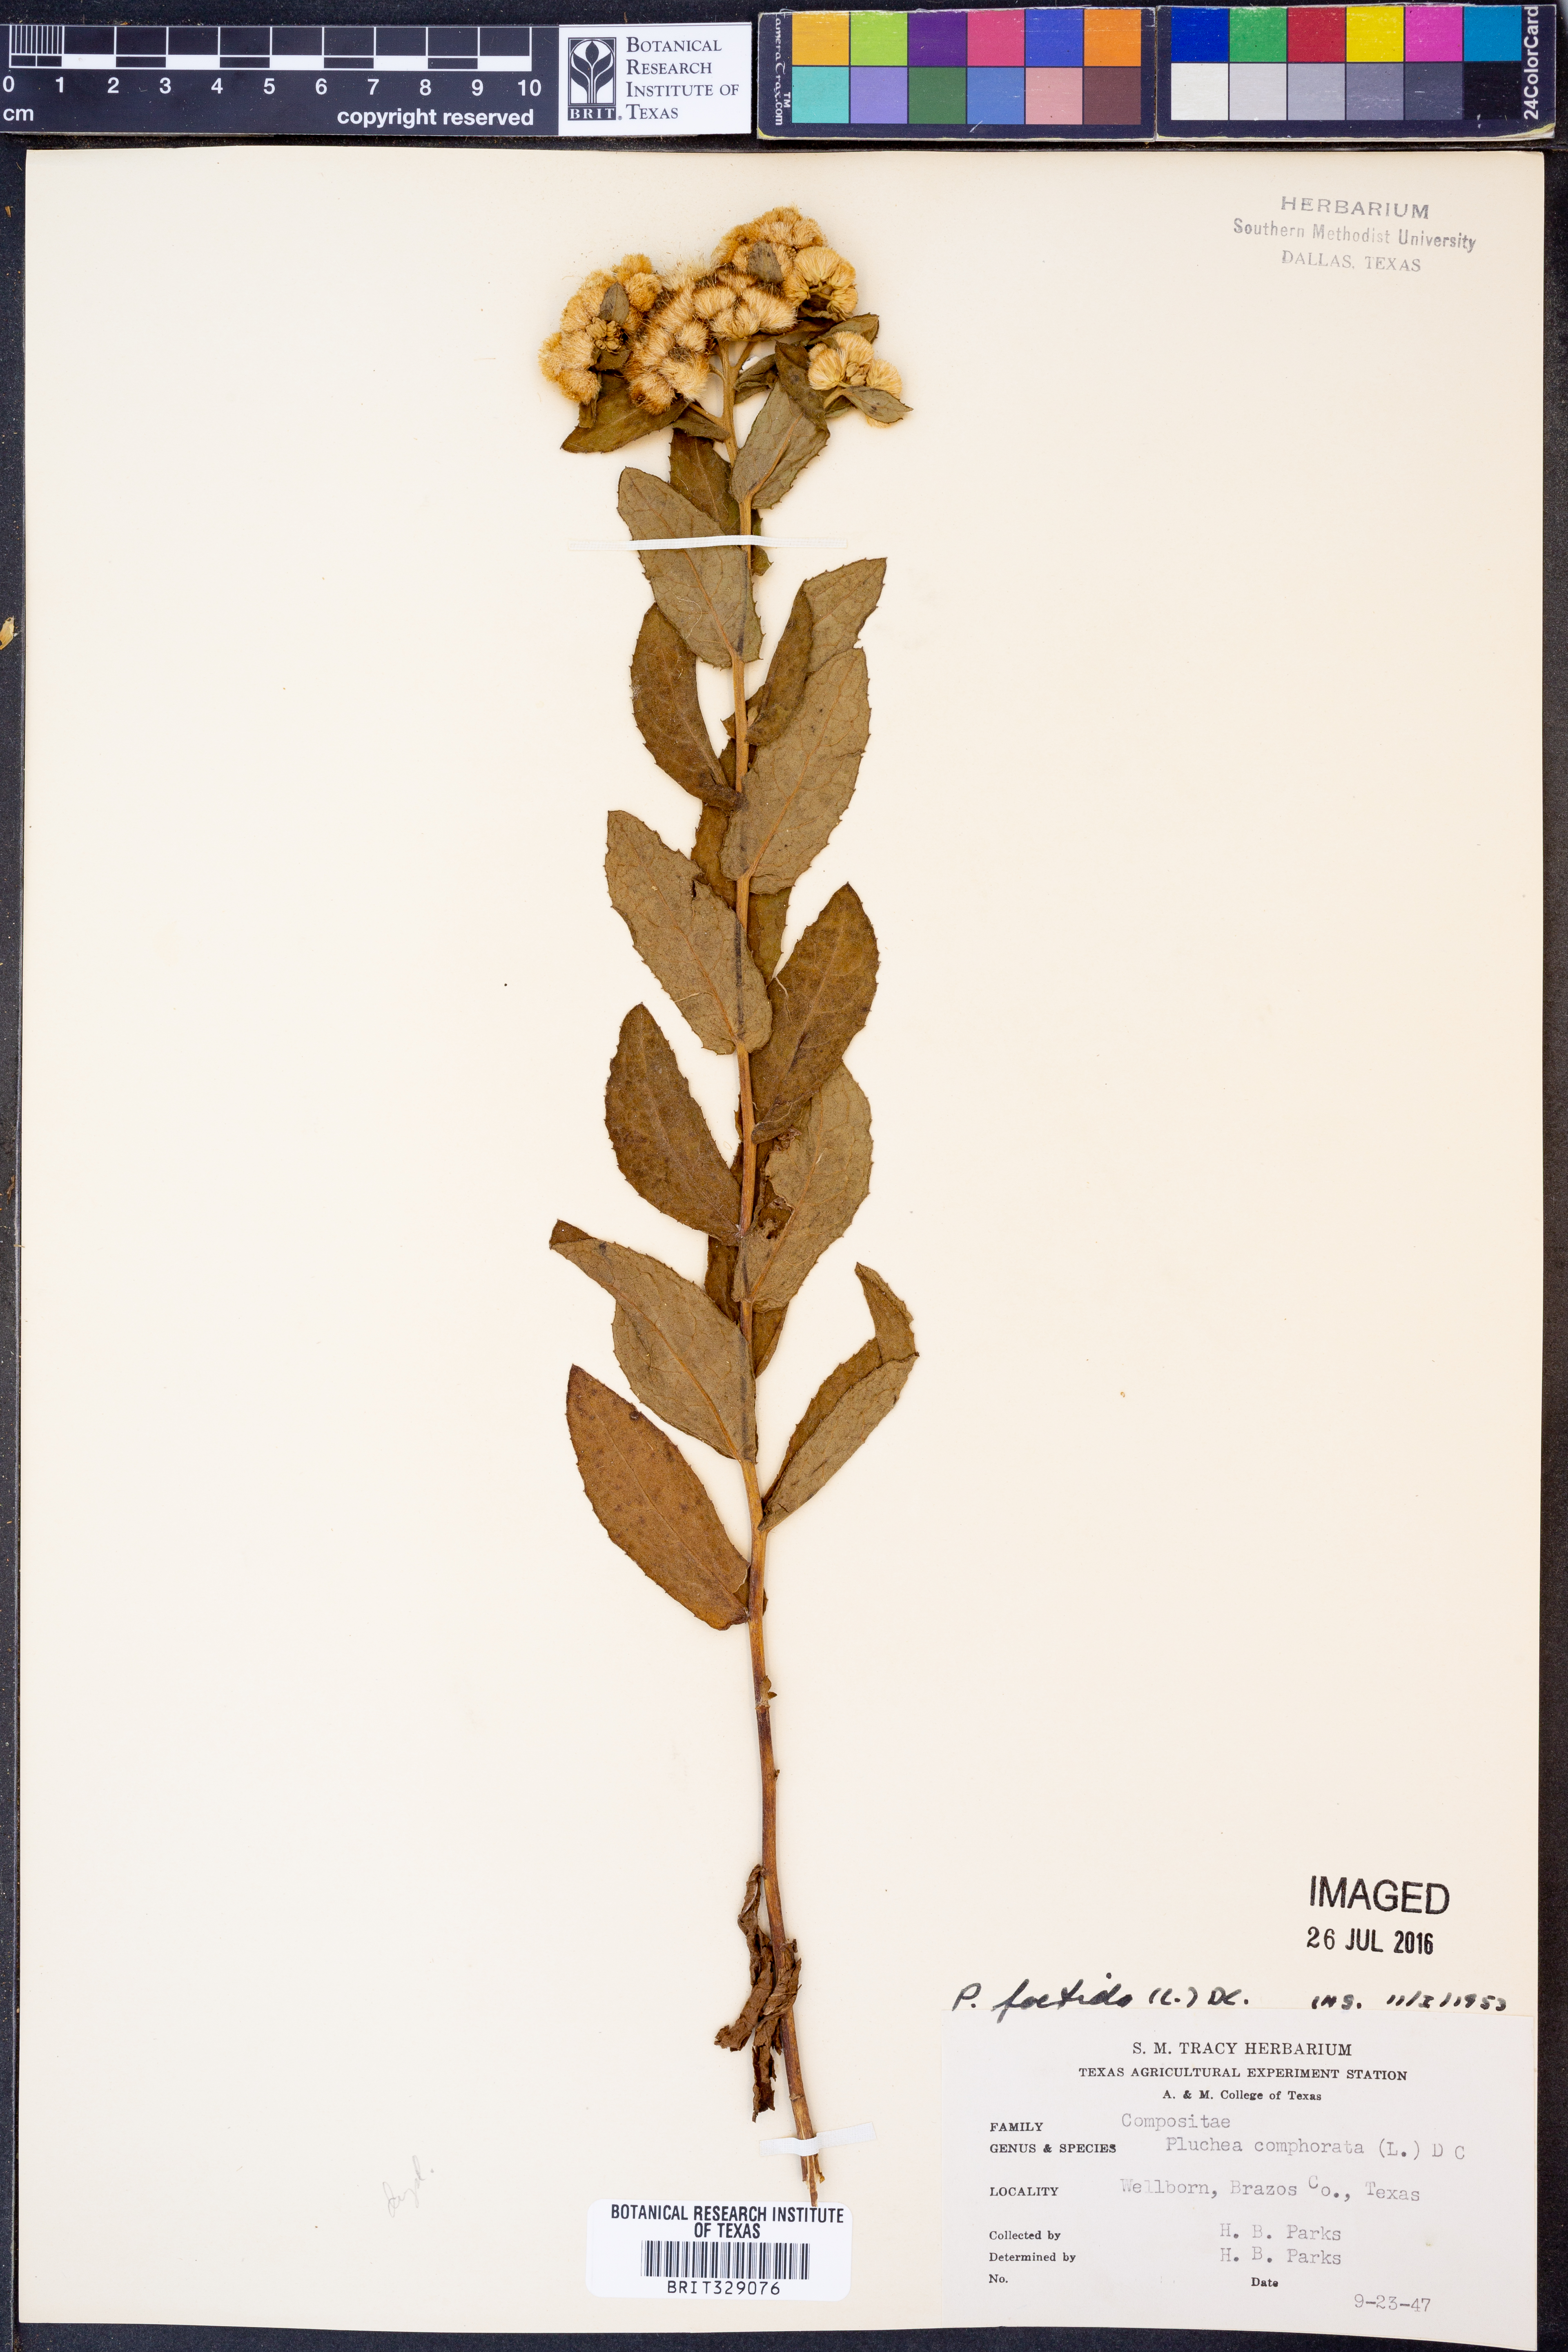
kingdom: Plantae
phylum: Tracheophyta
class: Magnoliopsida
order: Asterales
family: Asteraceae
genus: Pluchea
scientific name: Pluchea foetida
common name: Stinking camphorweed
